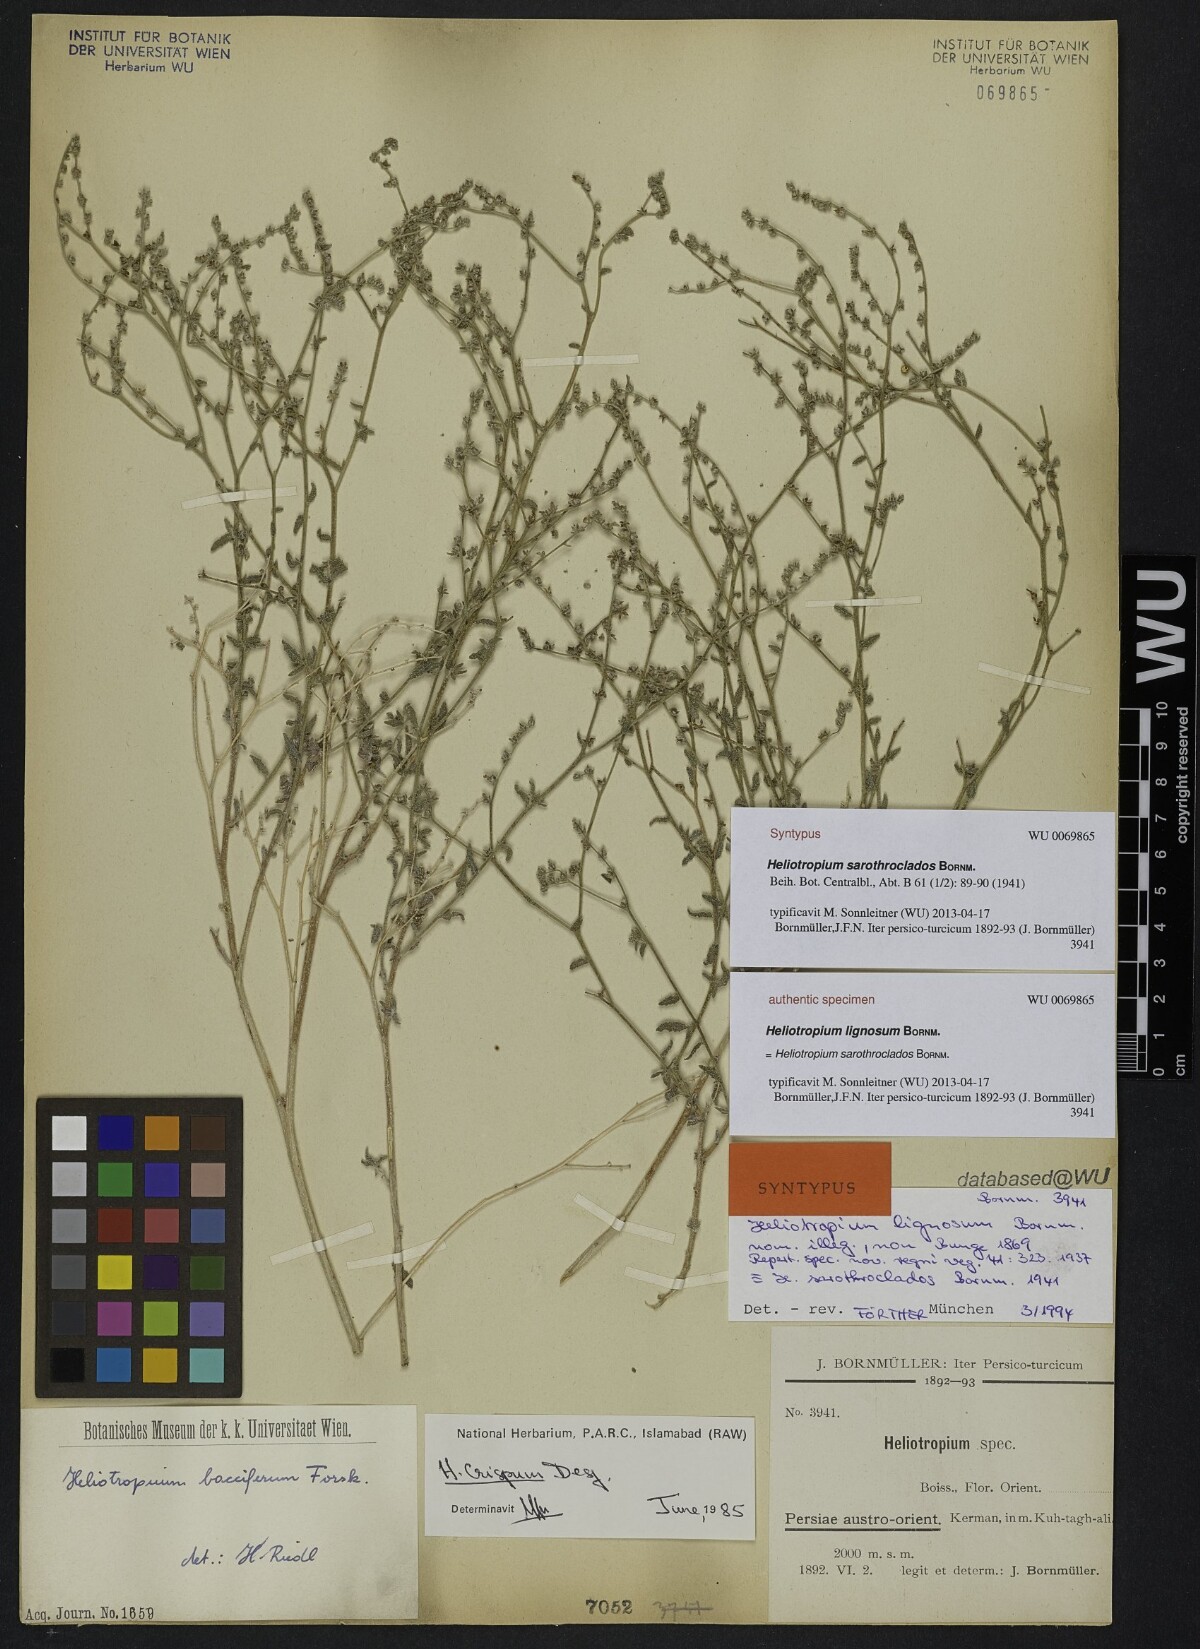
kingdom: Plantae
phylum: Tracheophyta
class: Magnoliopsida
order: Boraginales
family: Heliotropiaceae
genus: Heliotropium
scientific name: Heliotropium ramosissimum
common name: Wavy heliotrope
